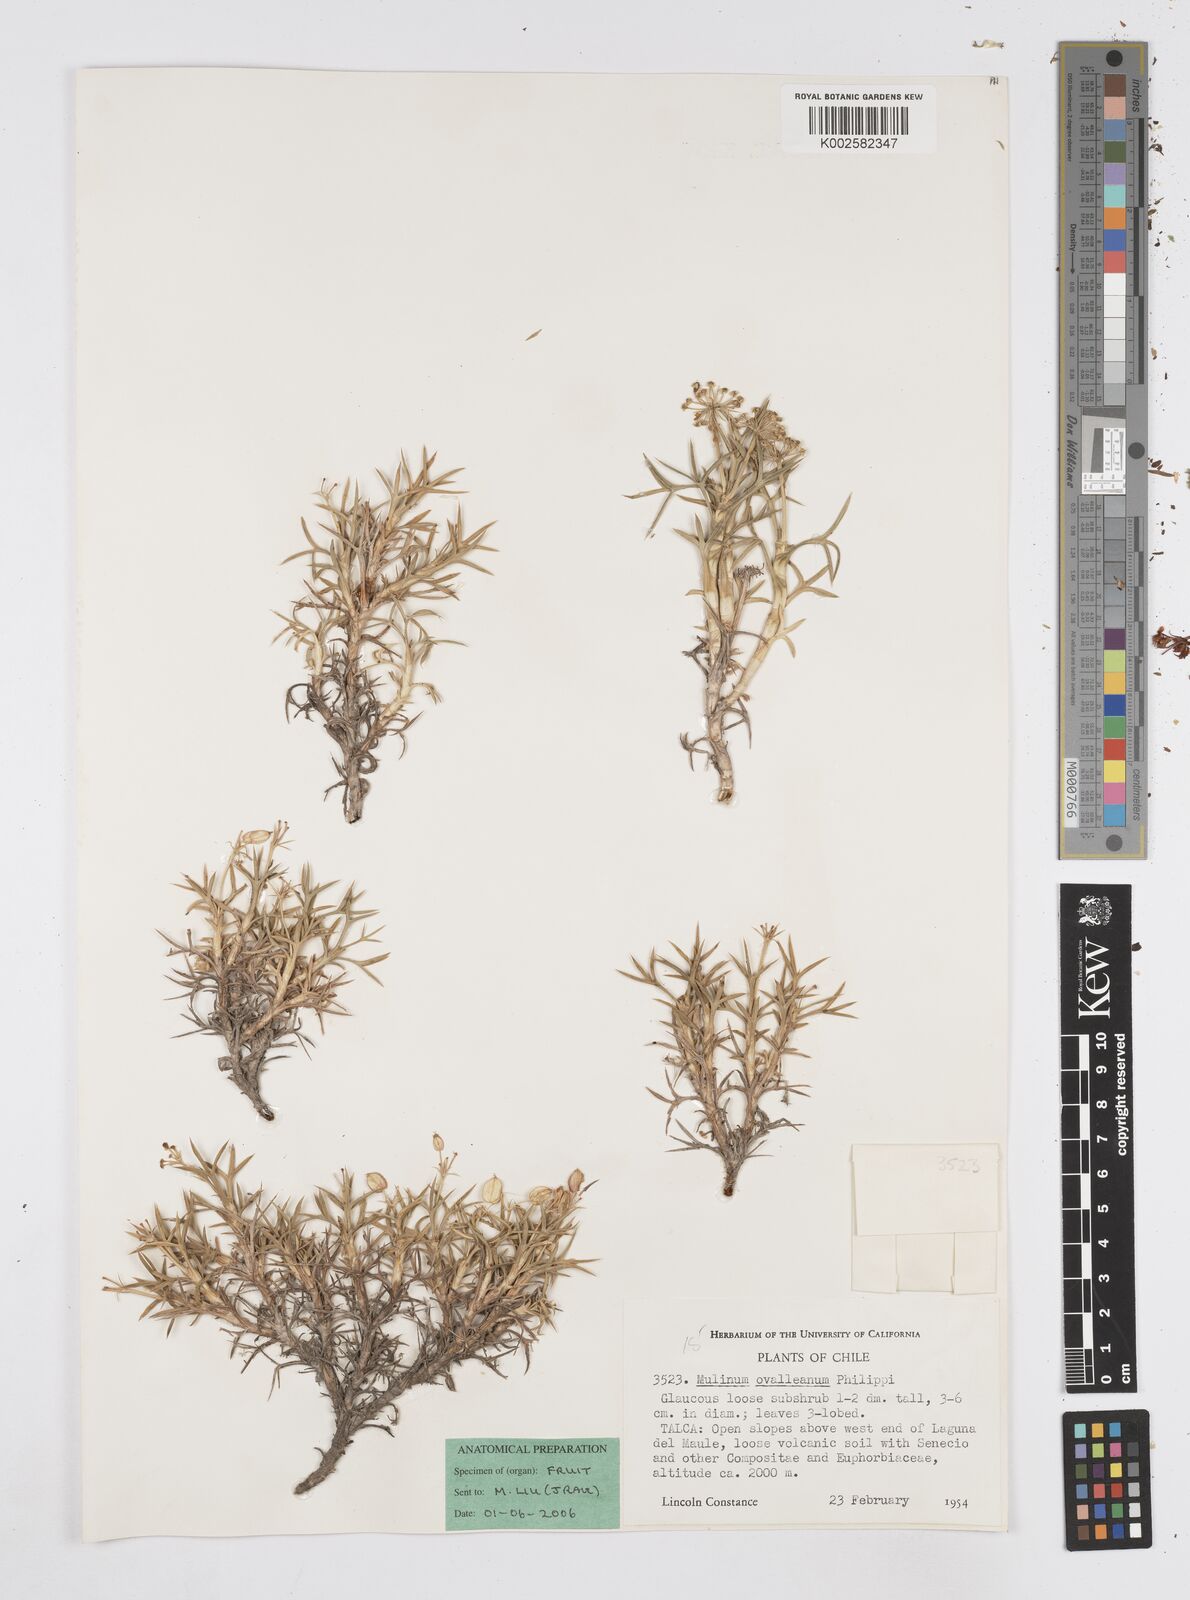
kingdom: Plantae
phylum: Tracheophyta
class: Magnoliopsida
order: Apiales
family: Apiaceae
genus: Azorella
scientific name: Azorella prolifera
